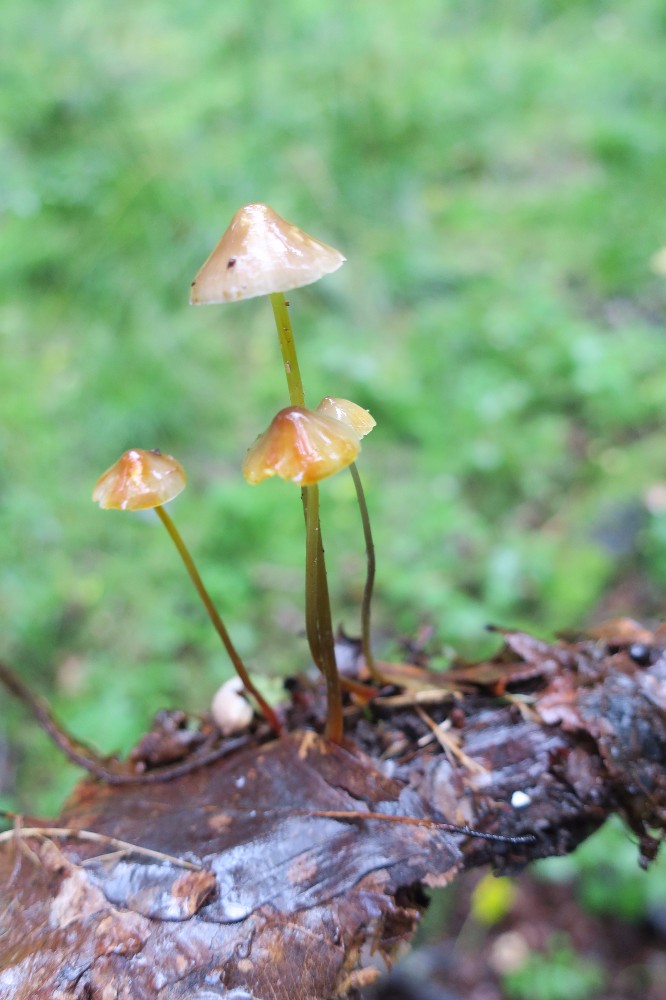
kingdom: Fungi
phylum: Basidiomycota
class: Agaricomycetes
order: Agaricales
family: Mycenaceae
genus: Mycena
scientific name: Mycena crocata
